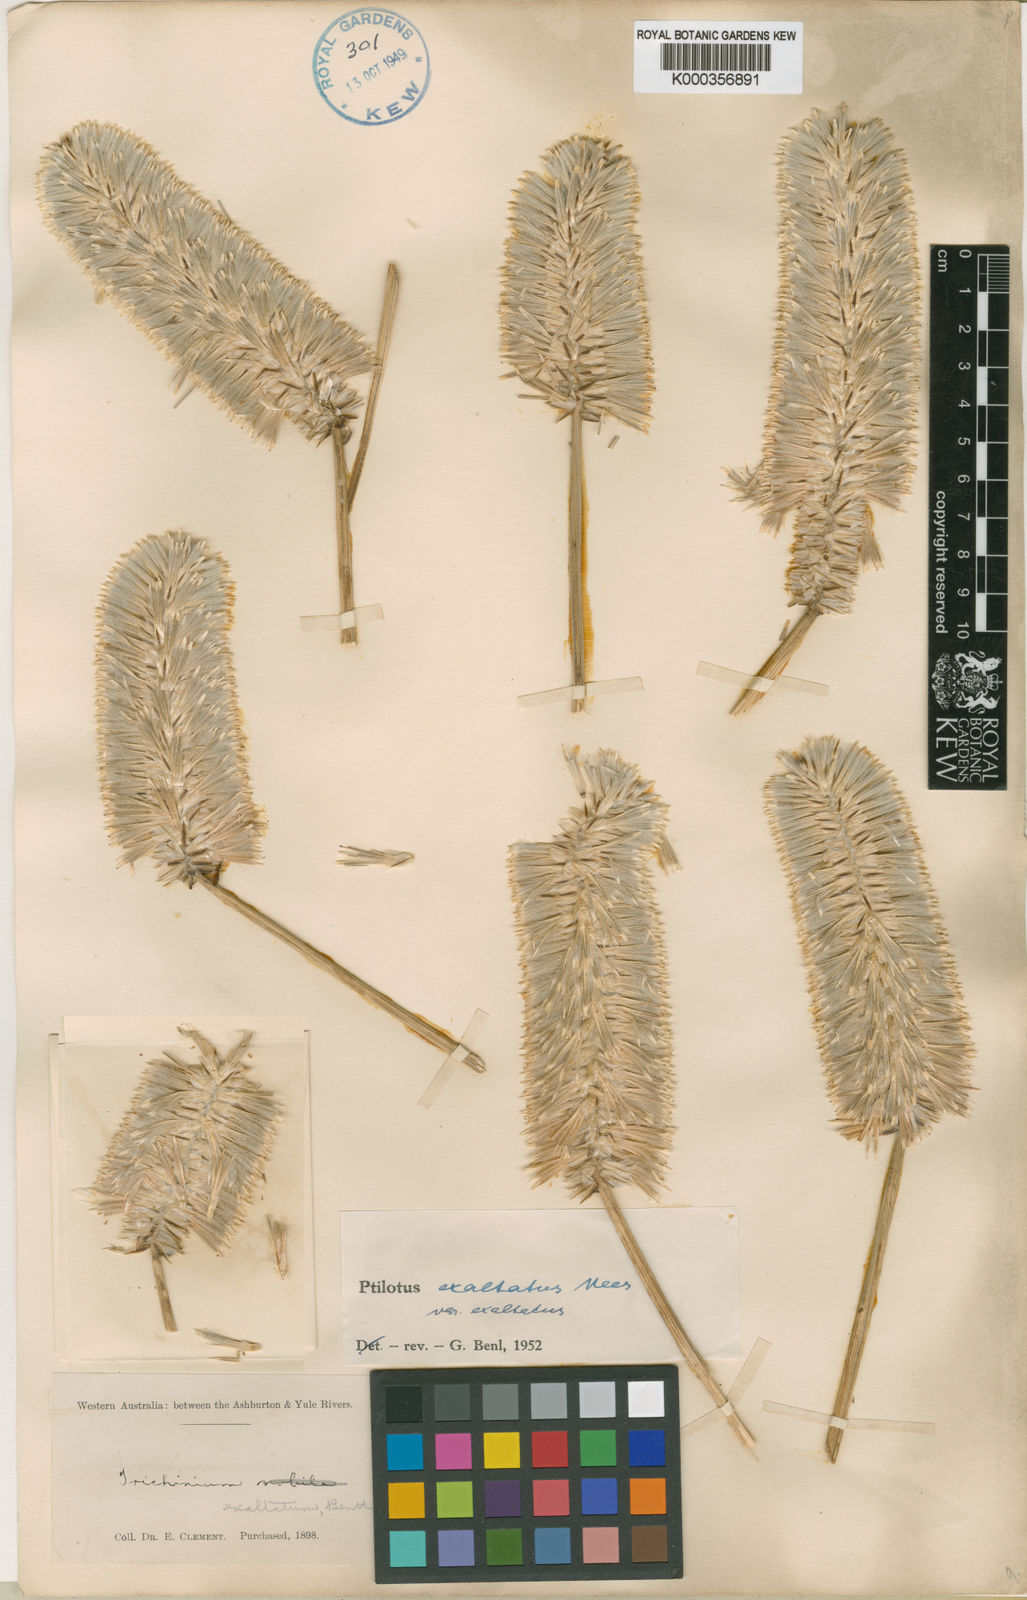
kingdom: Plantae
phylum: Tracheophyta
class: Magnoliopsida
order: Caryophyllales
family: Amaranthaceae
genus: Ptilotus
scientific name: Ptilotus
